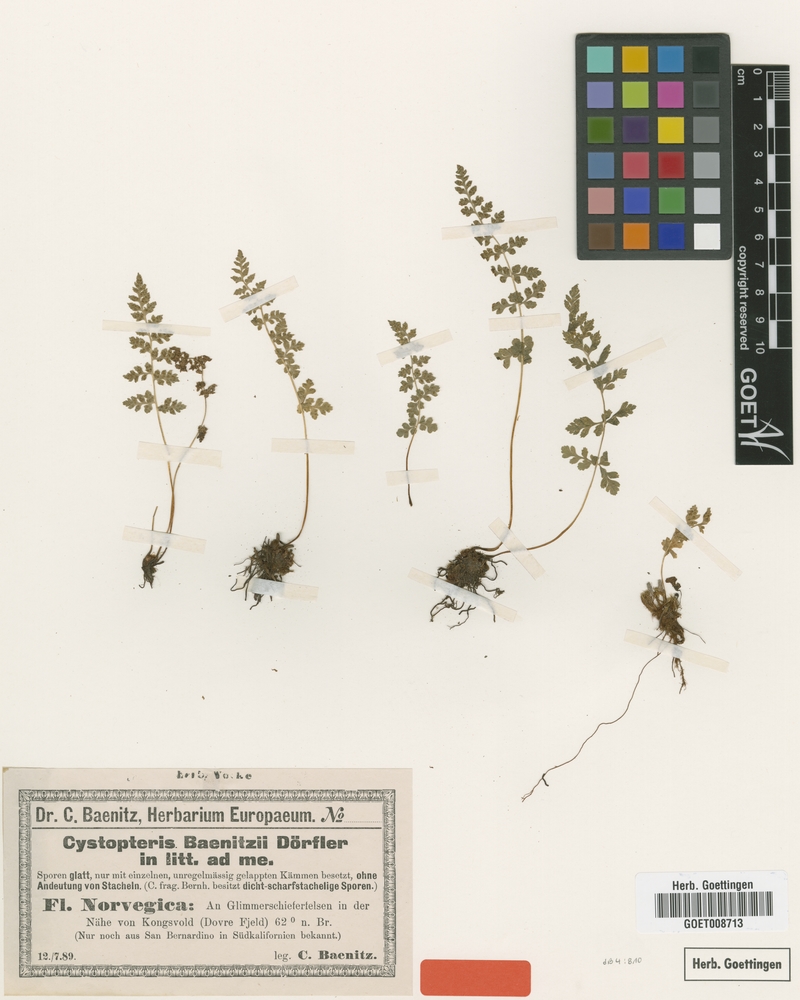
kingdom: Plantae
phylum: Tracheophyta
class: Polypodiopsida
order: Polypodiales
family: Cystopteridaceae
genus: Cystopteris
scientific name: Cystopteris dickieana
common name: Dickie's bladder-fern
